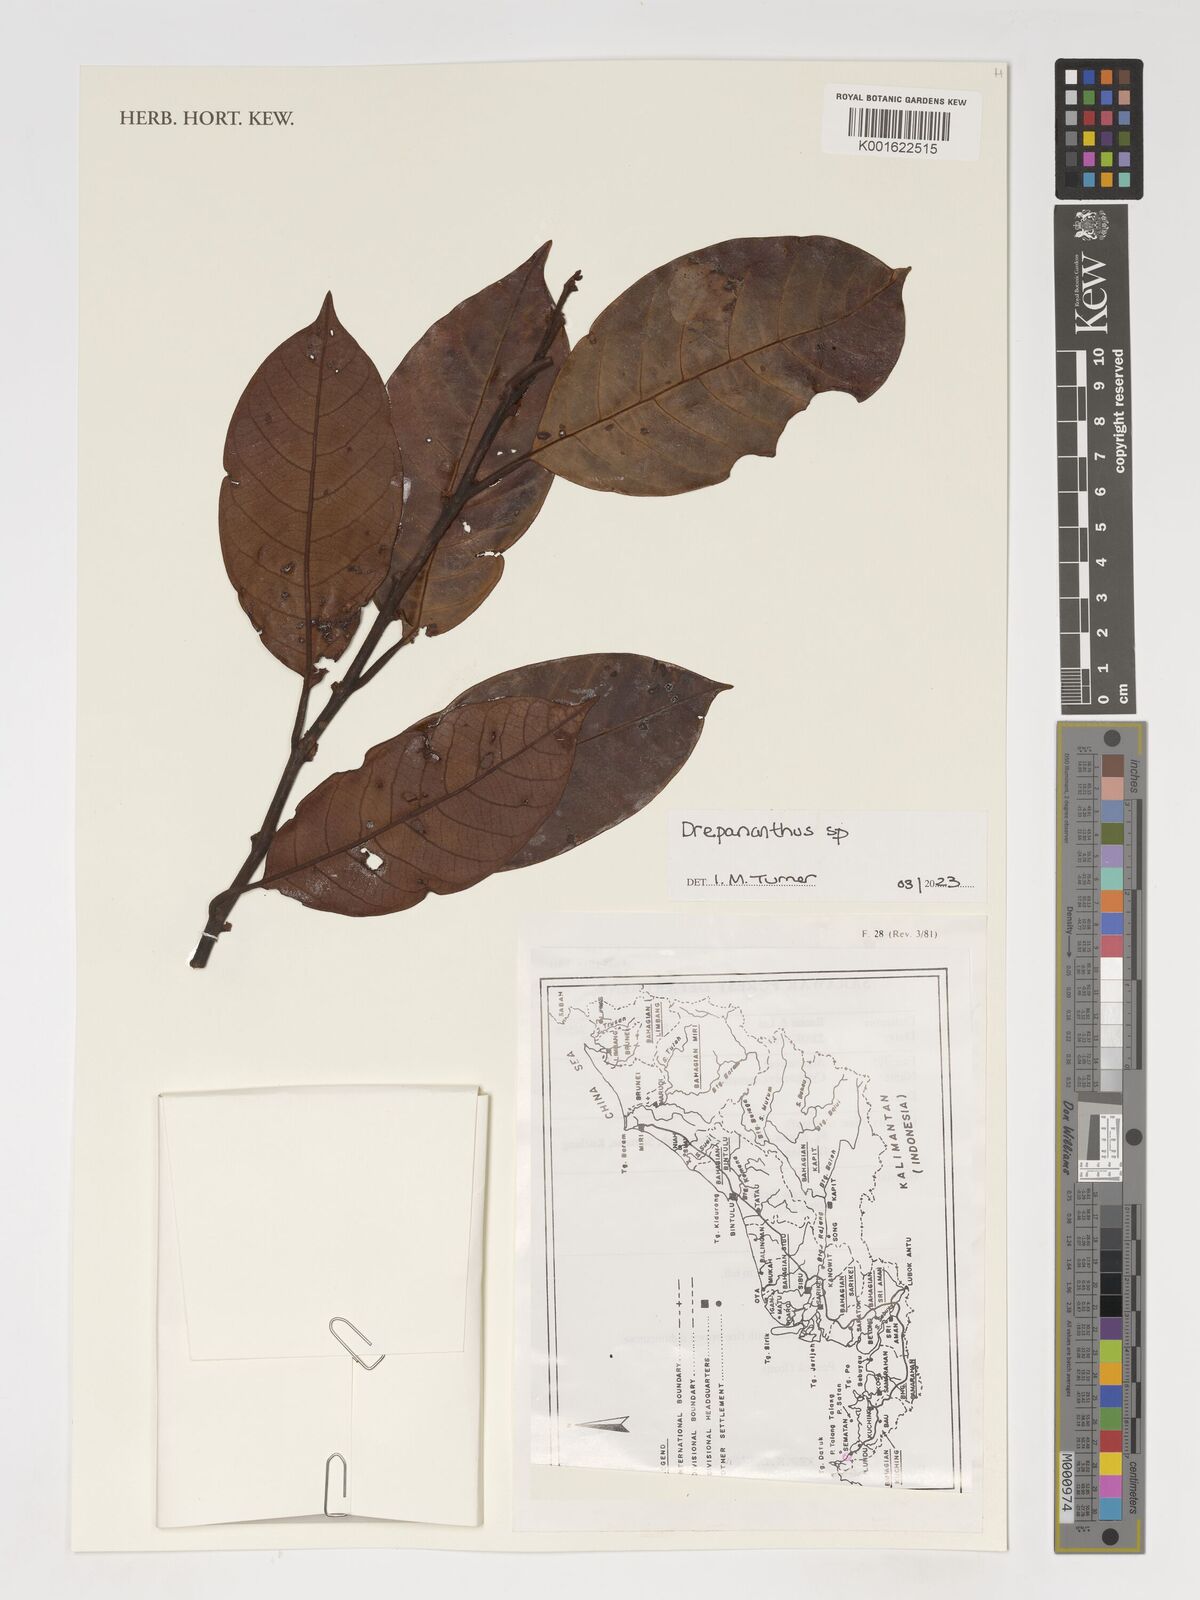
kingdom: Plantae
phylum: Tracheophyta
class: Magnoliopsida
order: Magnoliales
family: Annonaceae
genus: Drepananthus
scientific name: Drepananthus
